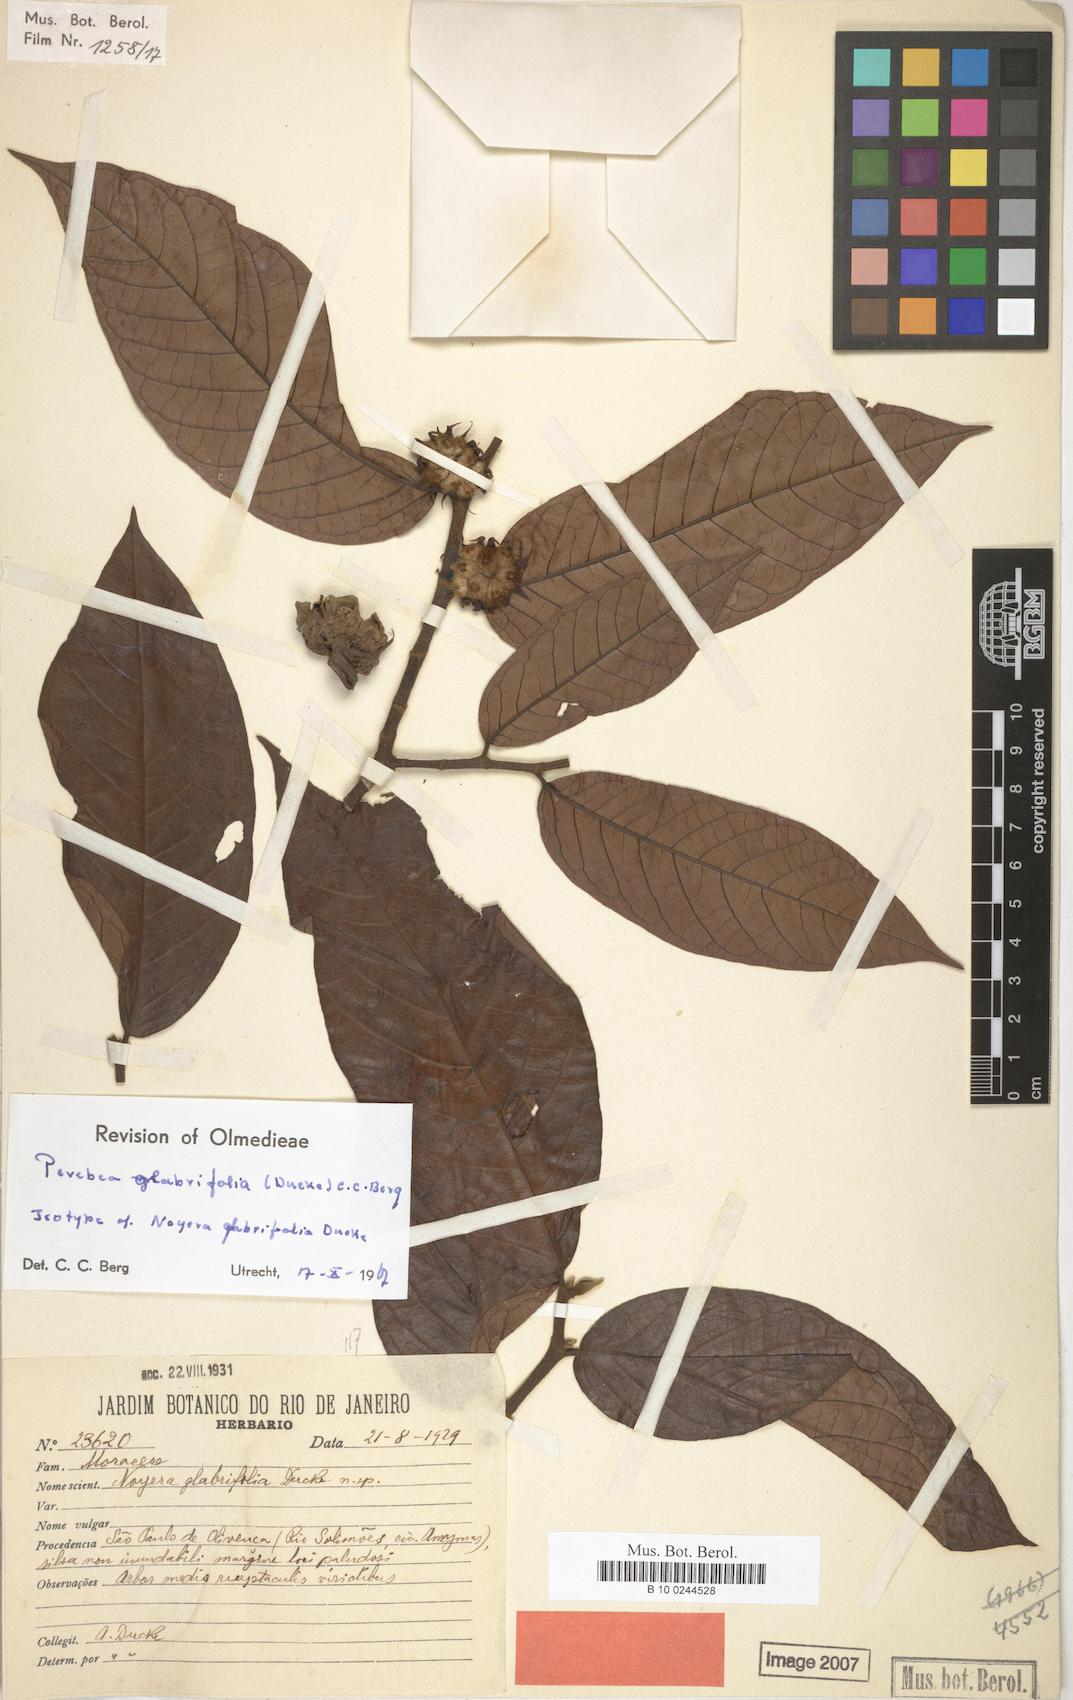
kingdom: Plantae
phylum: Tracheophyta
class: Magnoliopsida
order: Rosales
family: Moraceae
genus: Perebea
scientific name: Perebea rubra
